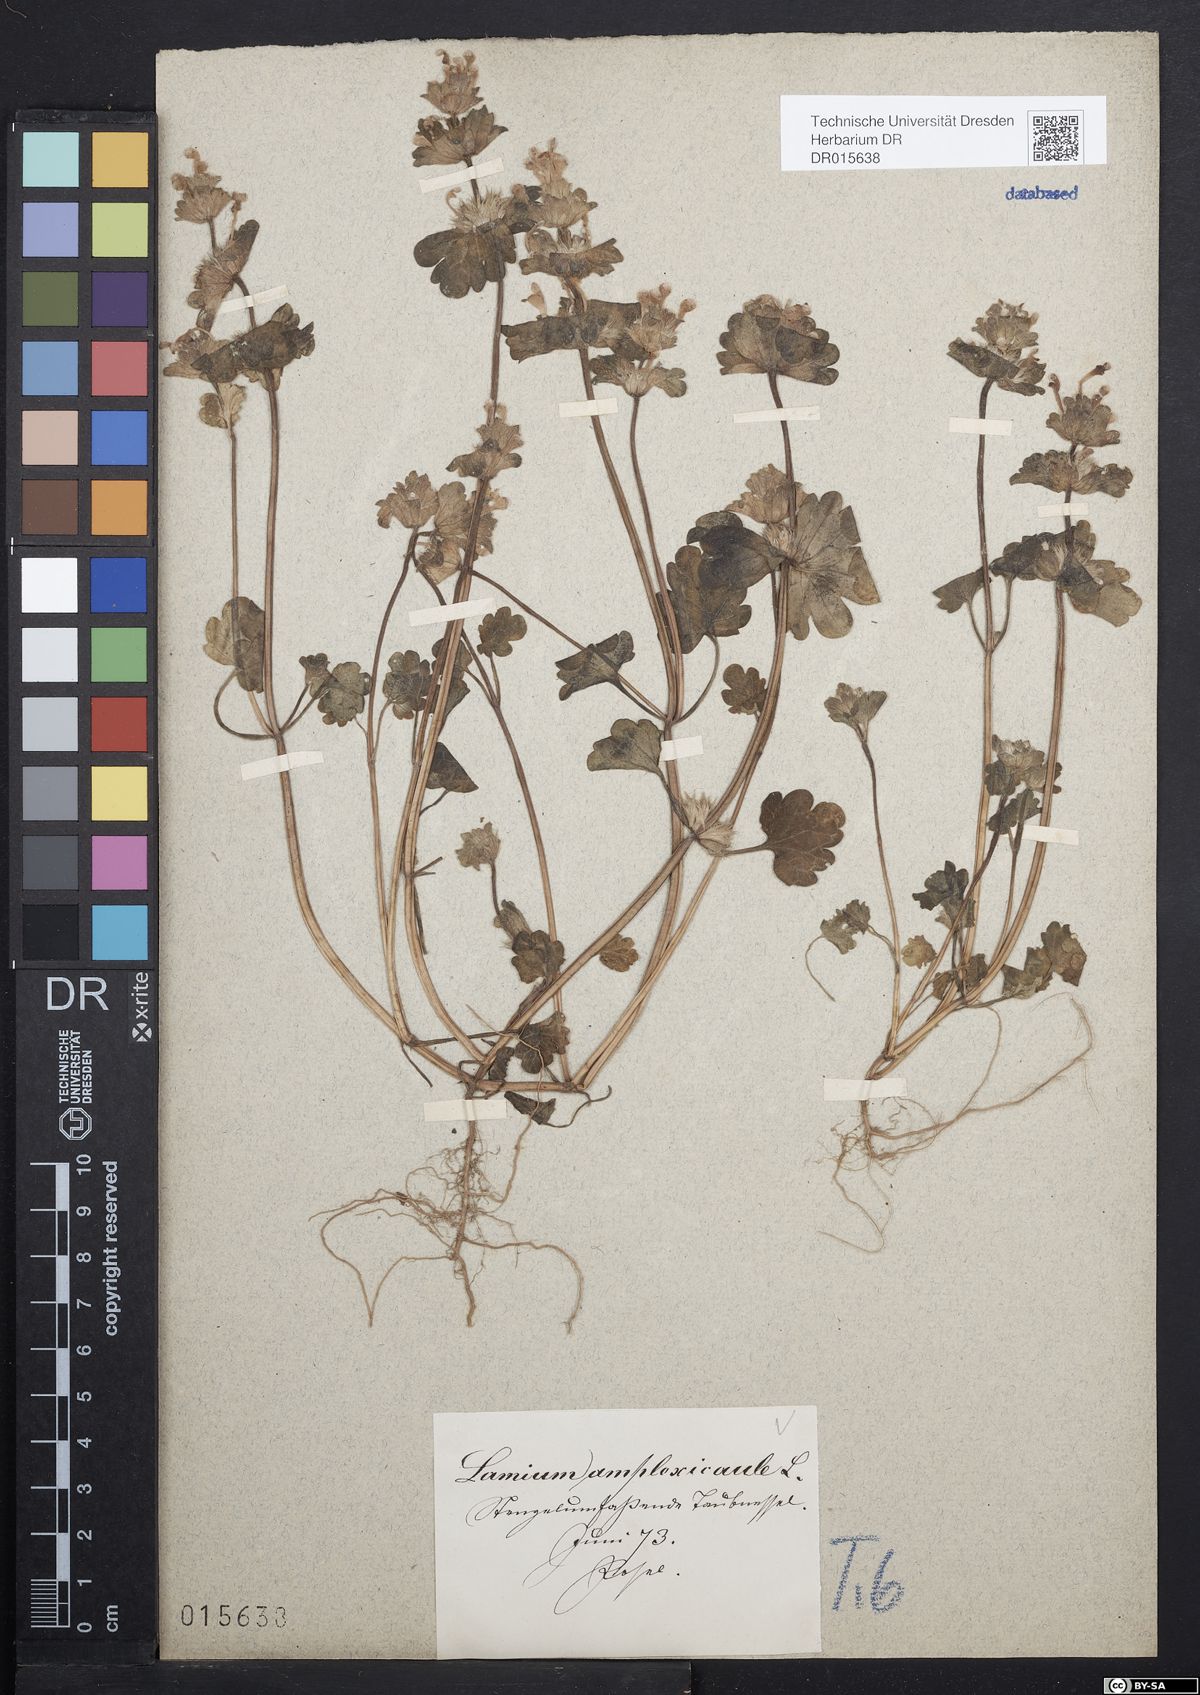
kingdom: Plantae
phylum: Tracheophyta
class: Magnoliopsida
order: Lamiales
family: Lamiaceae
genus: Lamium
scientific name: Lamium amplexicaule
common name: Henbit dead-nettle
